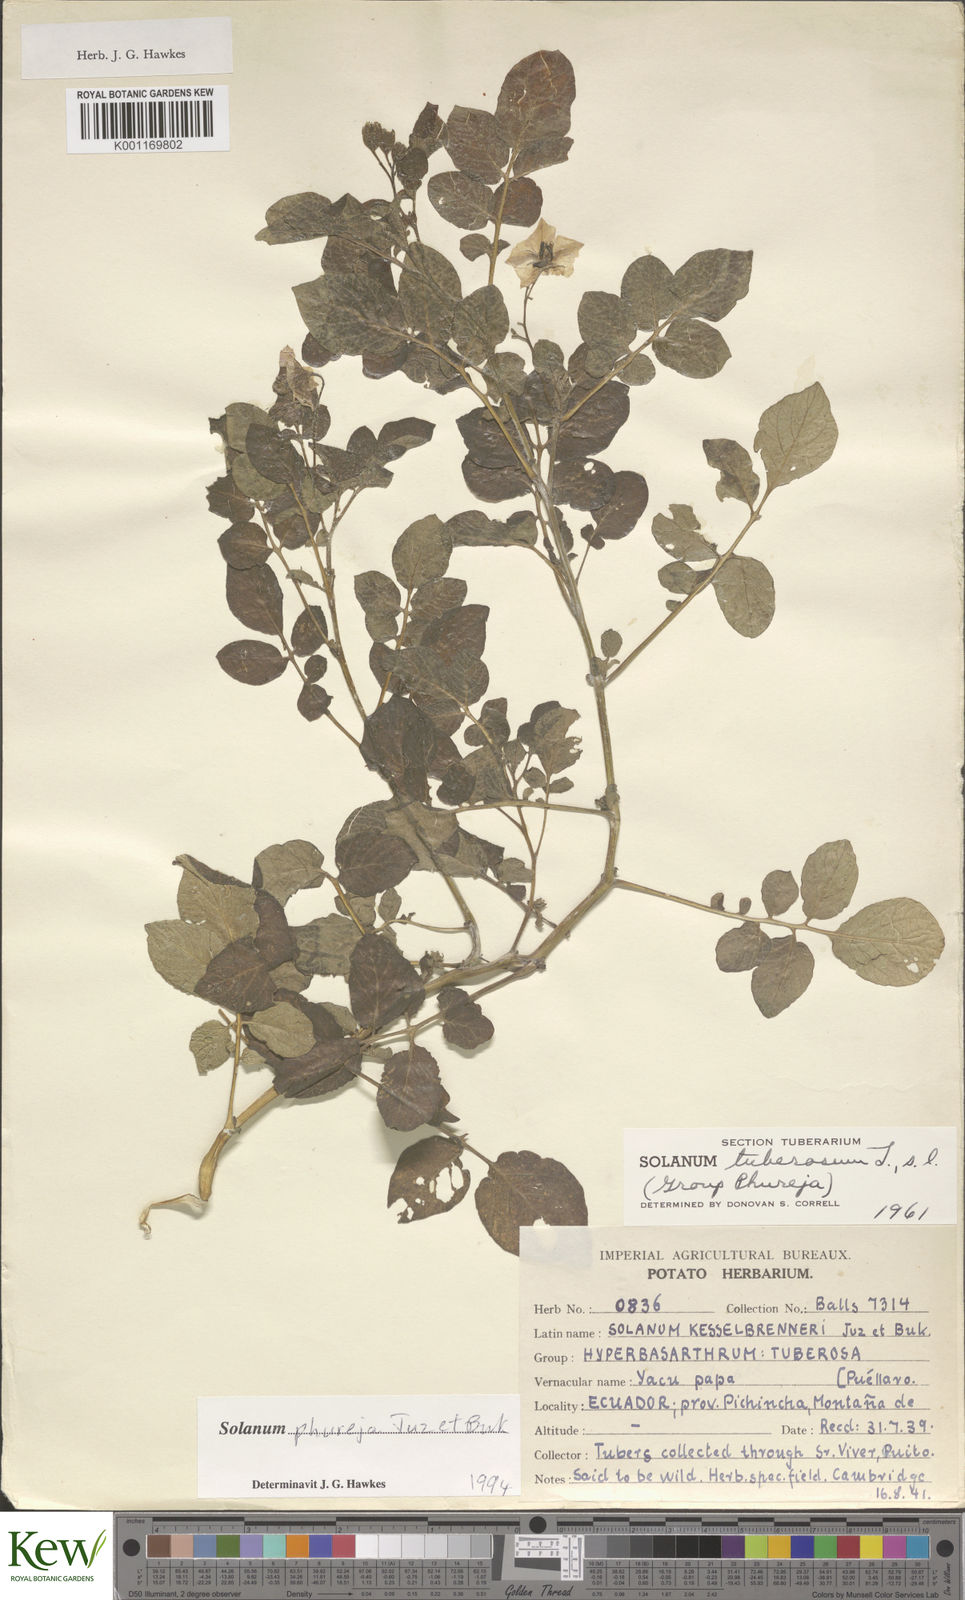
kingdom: Plantae
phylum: Tracheophyta
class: Magnoliopsida
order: Solanales
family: Solanaceae
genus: Solanum
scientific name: Solanum tuberosum
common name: Potato
